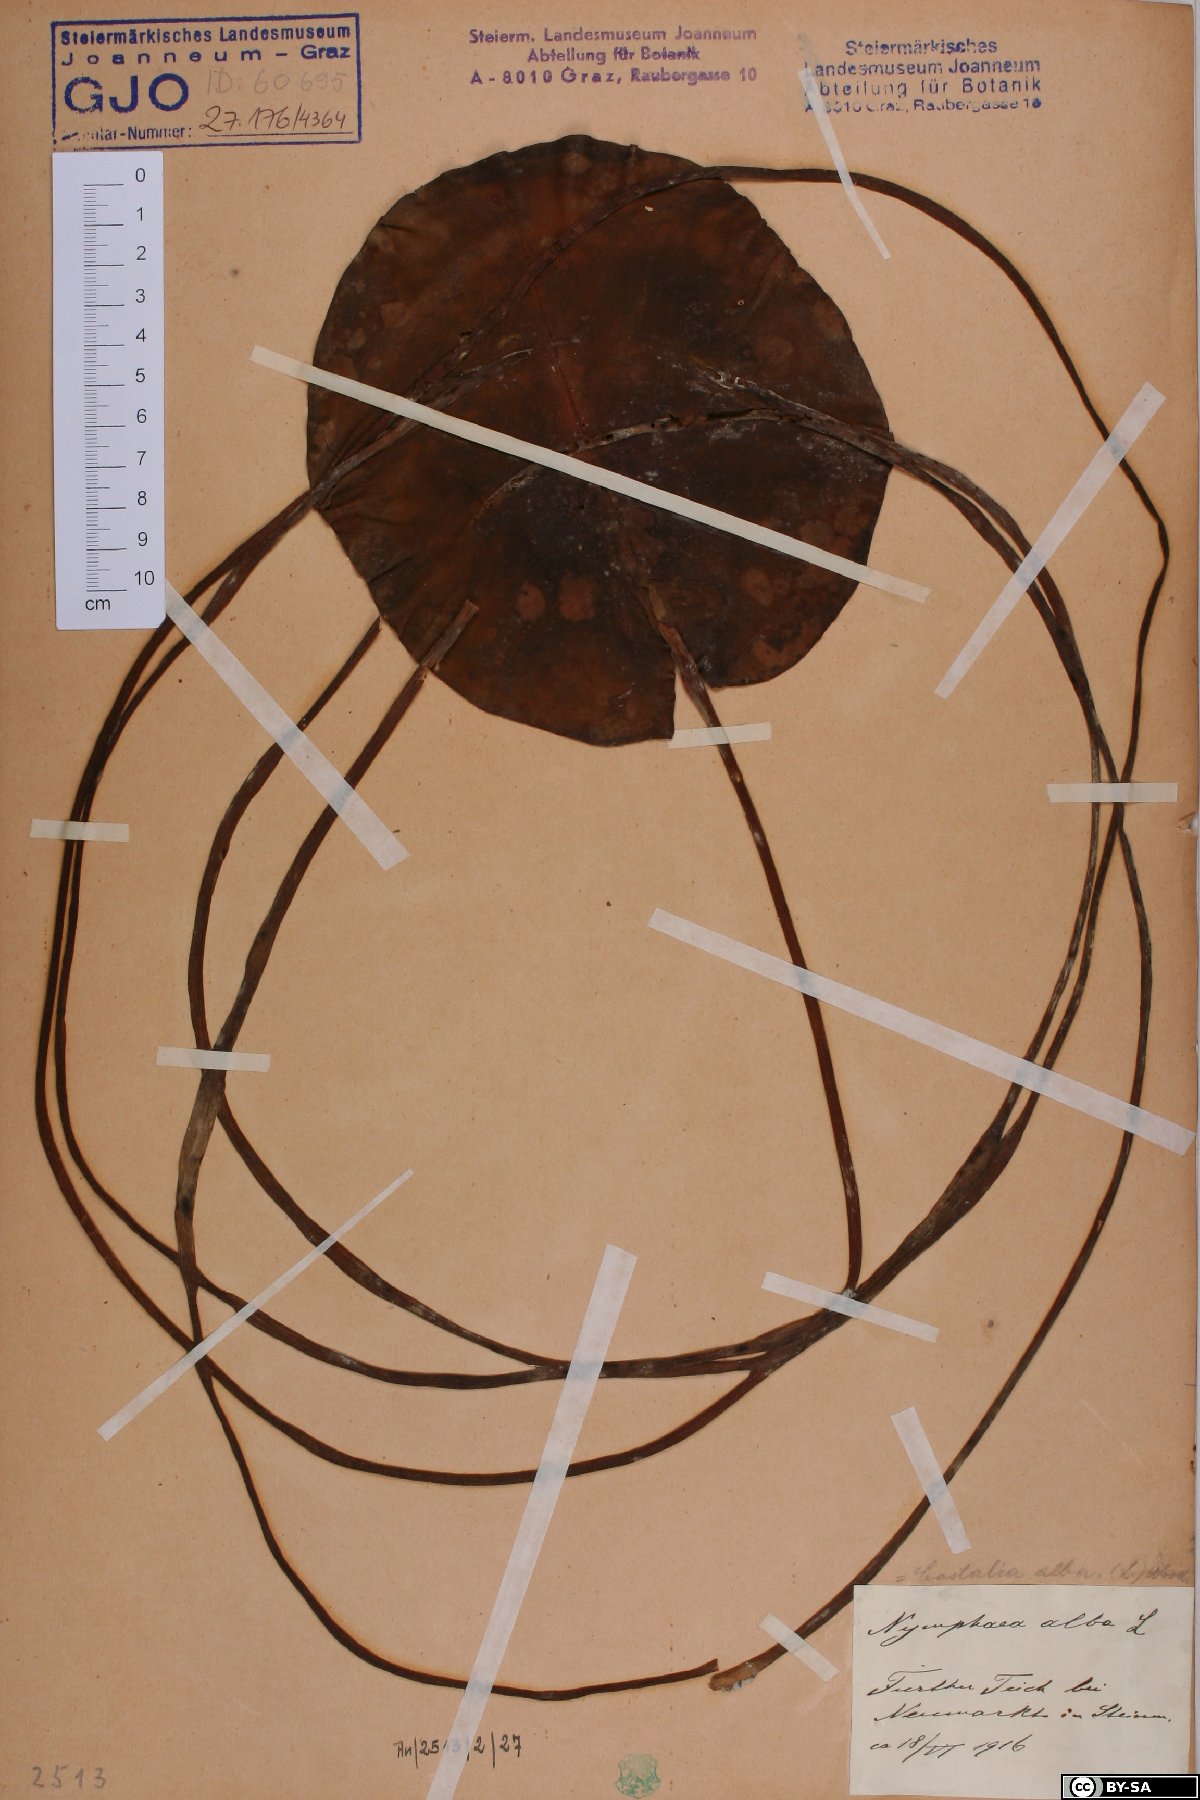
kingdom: Plantae
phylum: Tracheophyta
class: Magnoliopsida
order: Nymphaeales
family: Nymphaeaceae
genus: Nymphaea
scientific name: Nymphaea alba
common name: White water-lily
